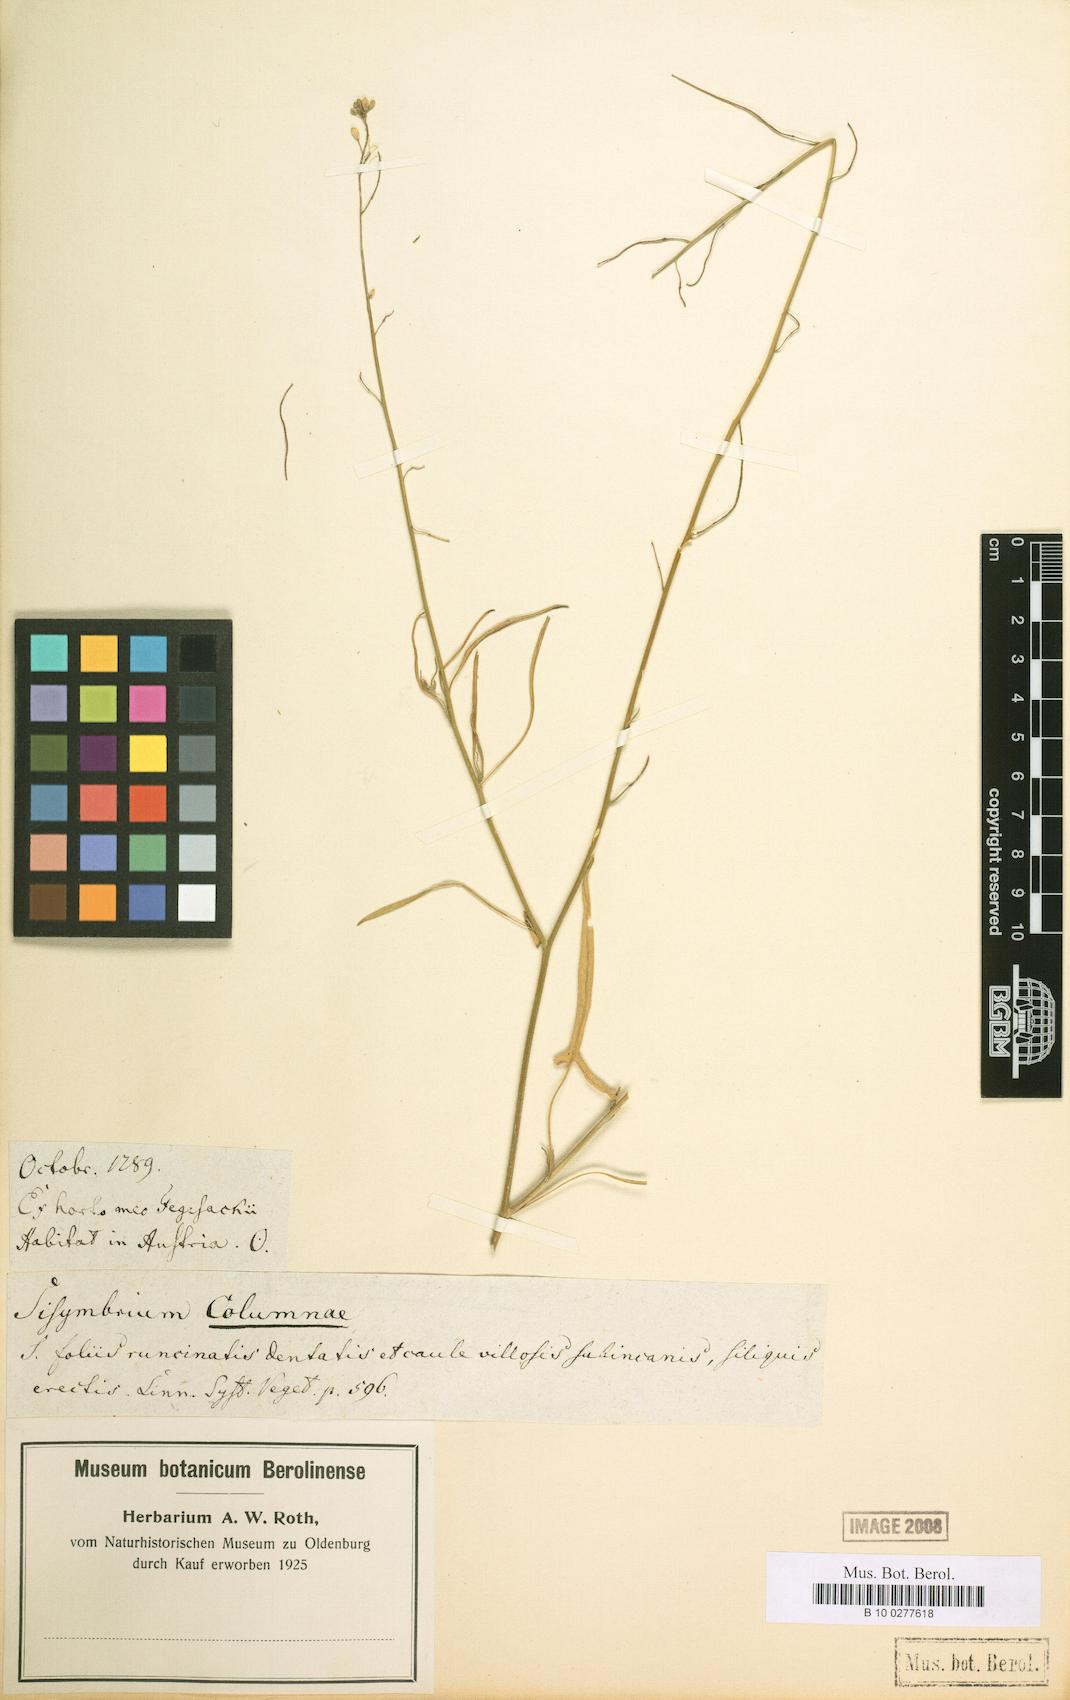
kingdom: Plantae
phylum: Tracheophyta
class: Magnoliopsida
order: Brassicales
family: Brassicaceae
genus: Sisymbrium
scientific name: Sisymbrium orientale
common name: Eastern rocket
